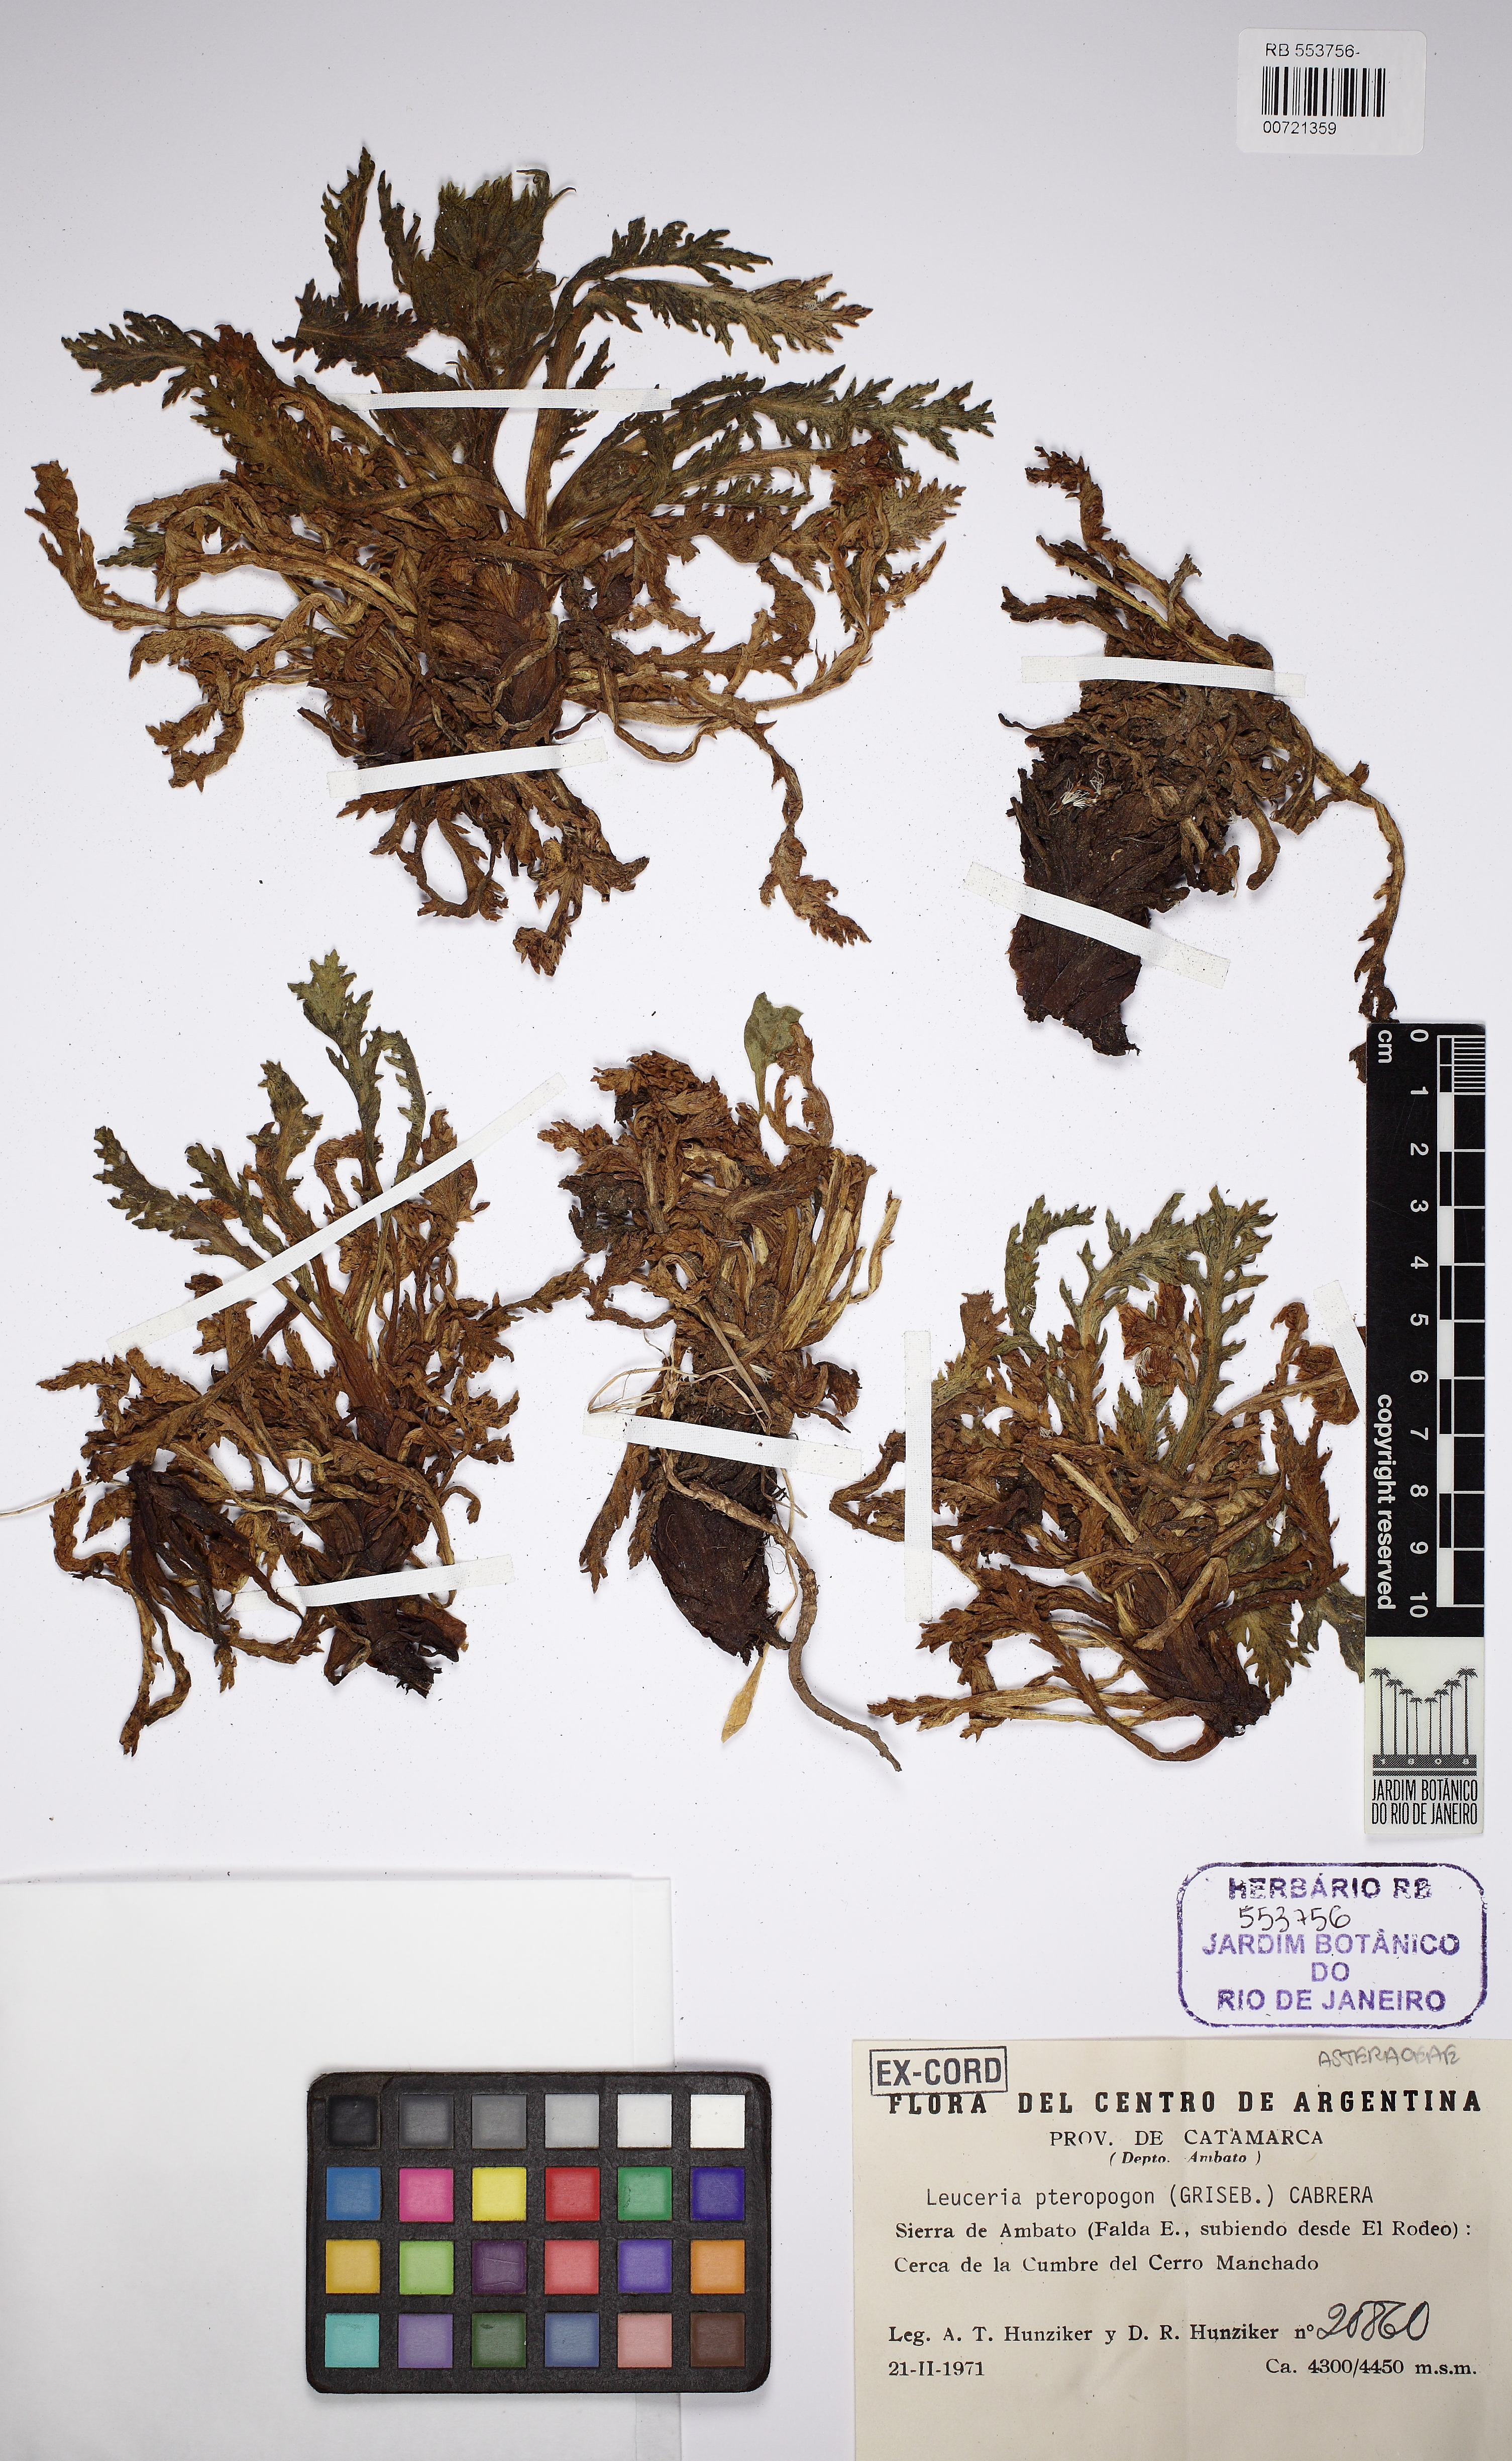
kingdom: Plantae
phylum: Tracheophyta
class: Magnoliopsida
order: Asterales
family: Asteraceae
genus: Leucheria
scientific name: Leucheria pteropogon
